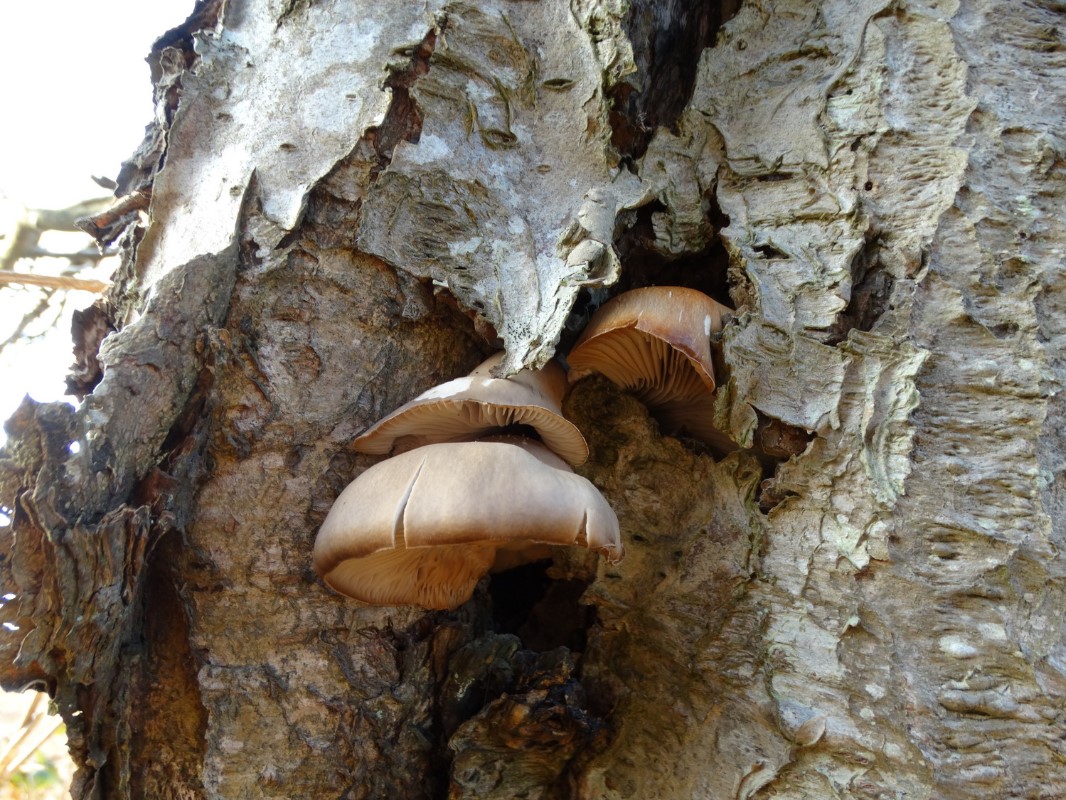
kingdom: Fungi
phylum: Basidiomycota
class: Agaricomycetes
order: Agaricales
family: Pleurotaceae
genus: Pleurotus
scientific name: Pleurotus ostreatus
